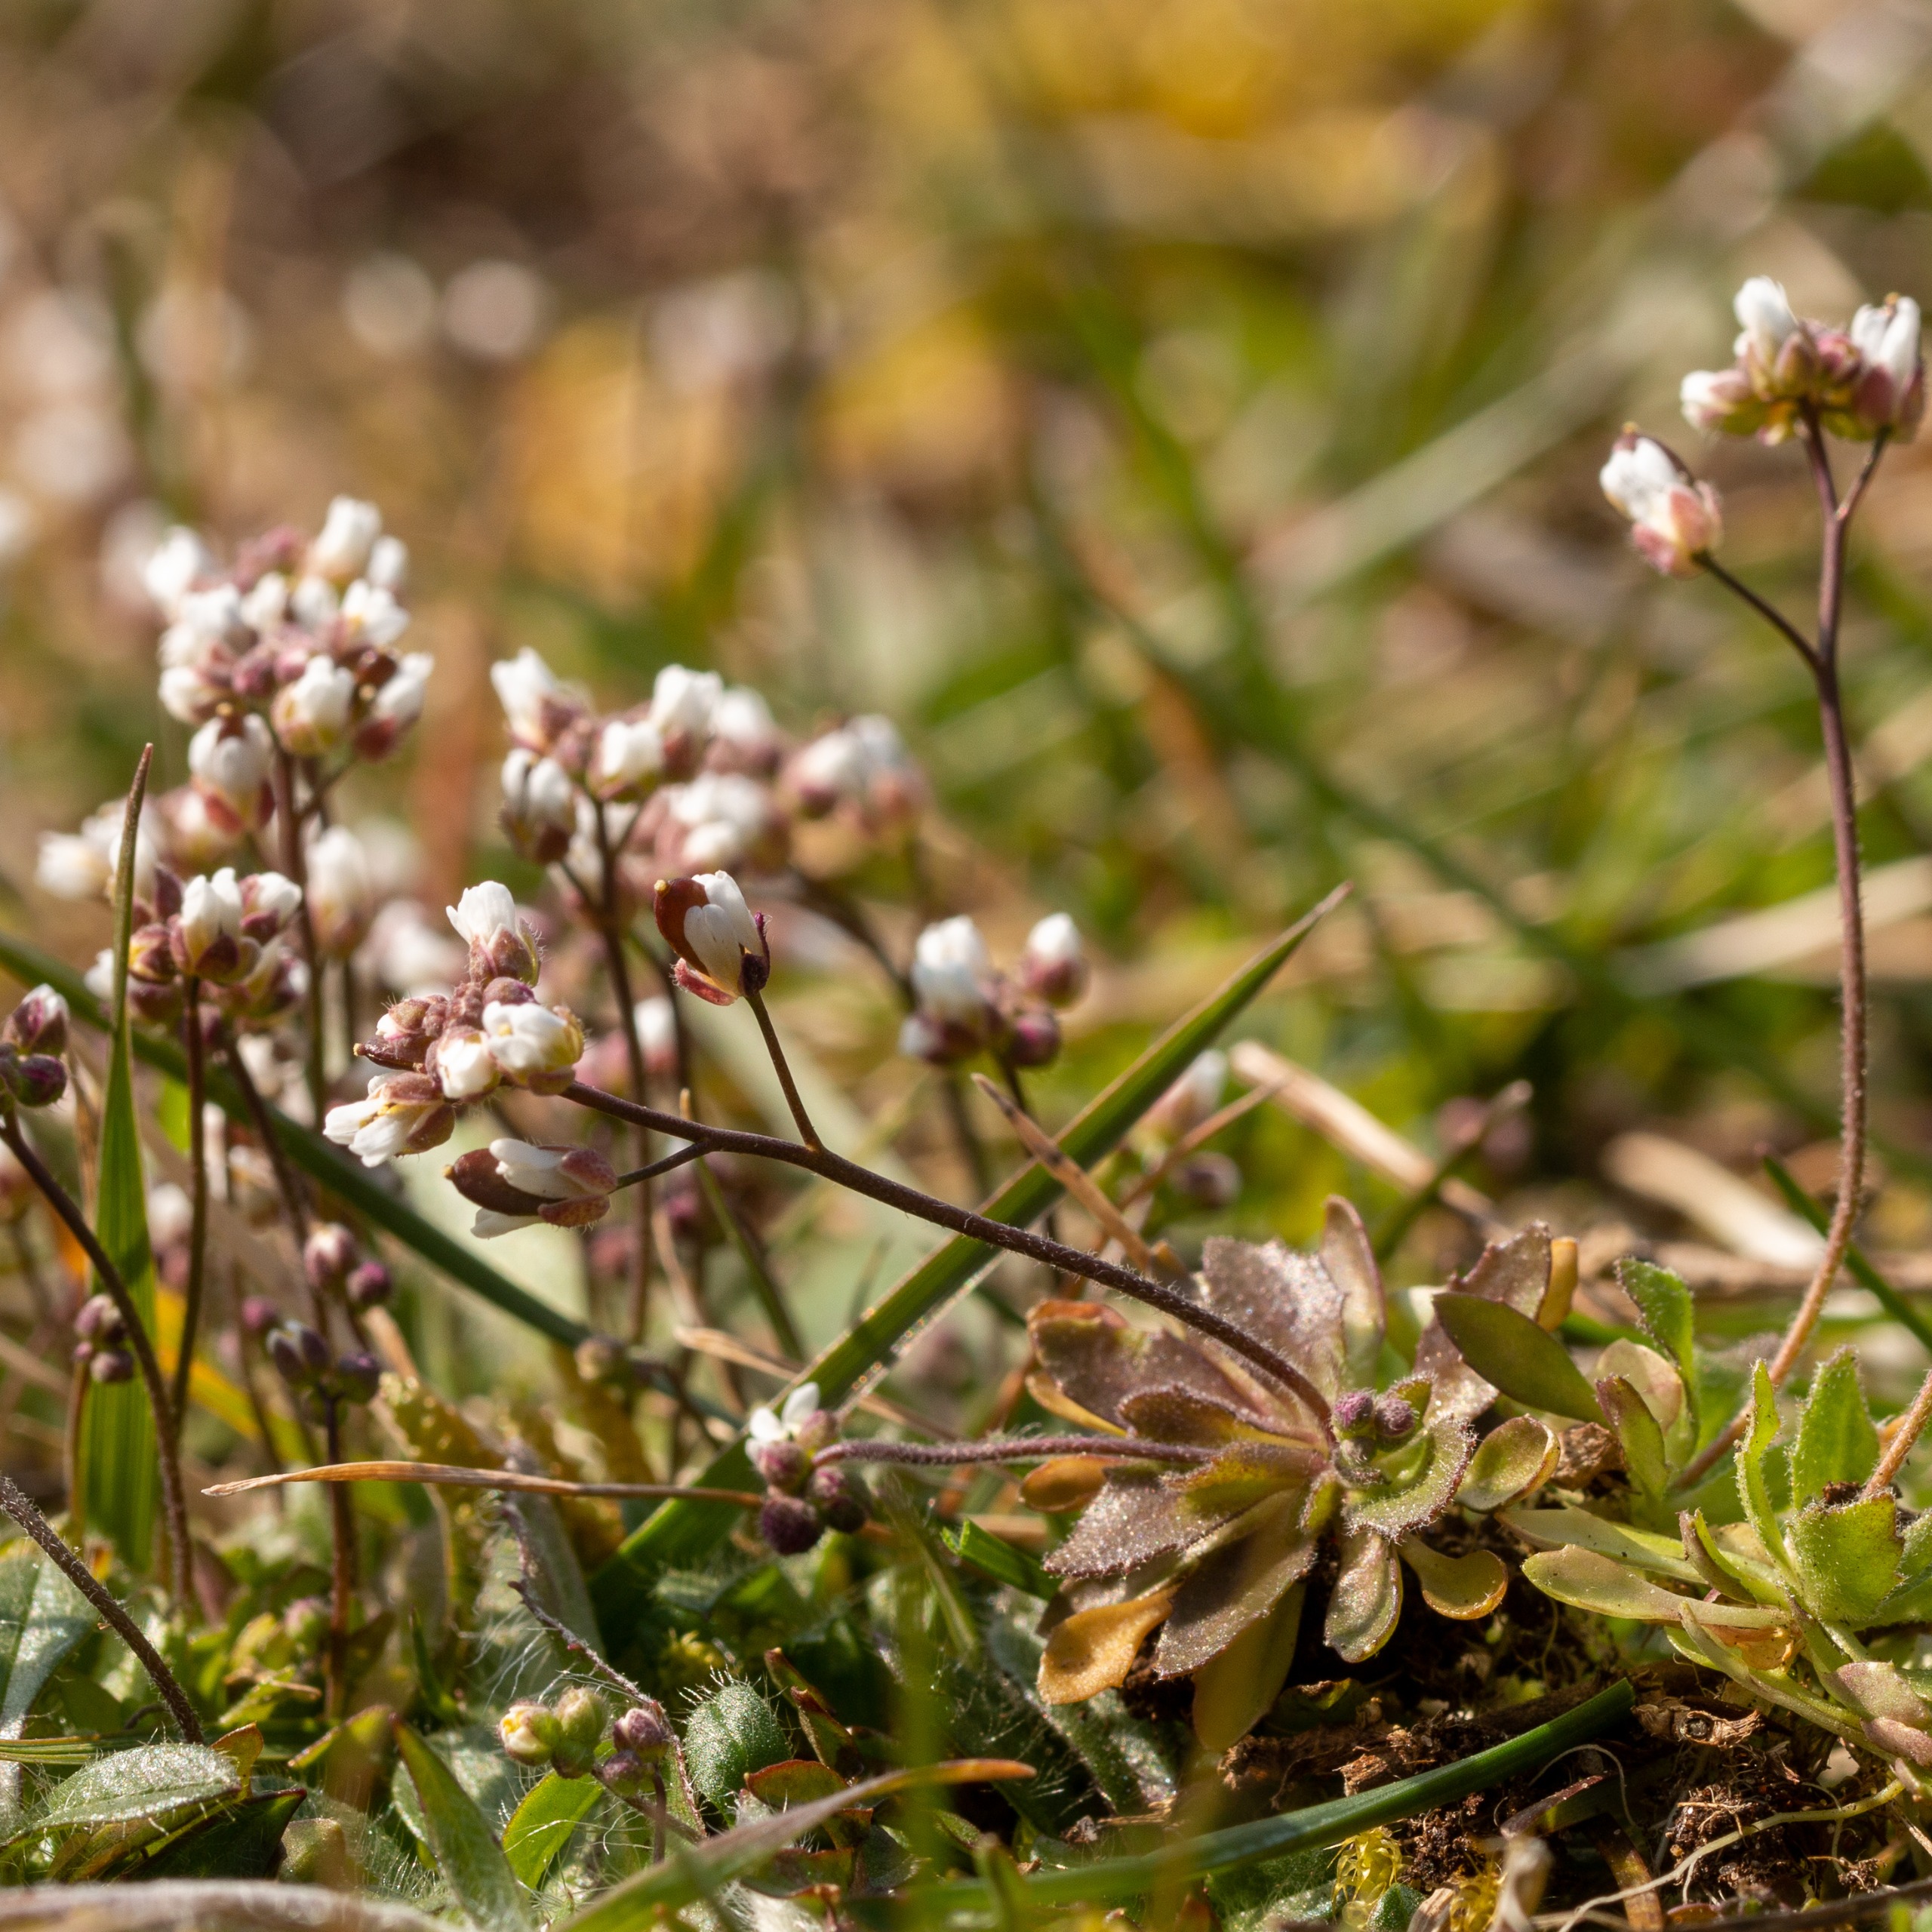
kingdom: Plantae
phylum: Tracheophyta
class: Magnoliopsida
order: Brassicales
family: Brassicaceae
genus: Draba
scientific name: Draba verna
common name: Vår-gæslingeblomst
